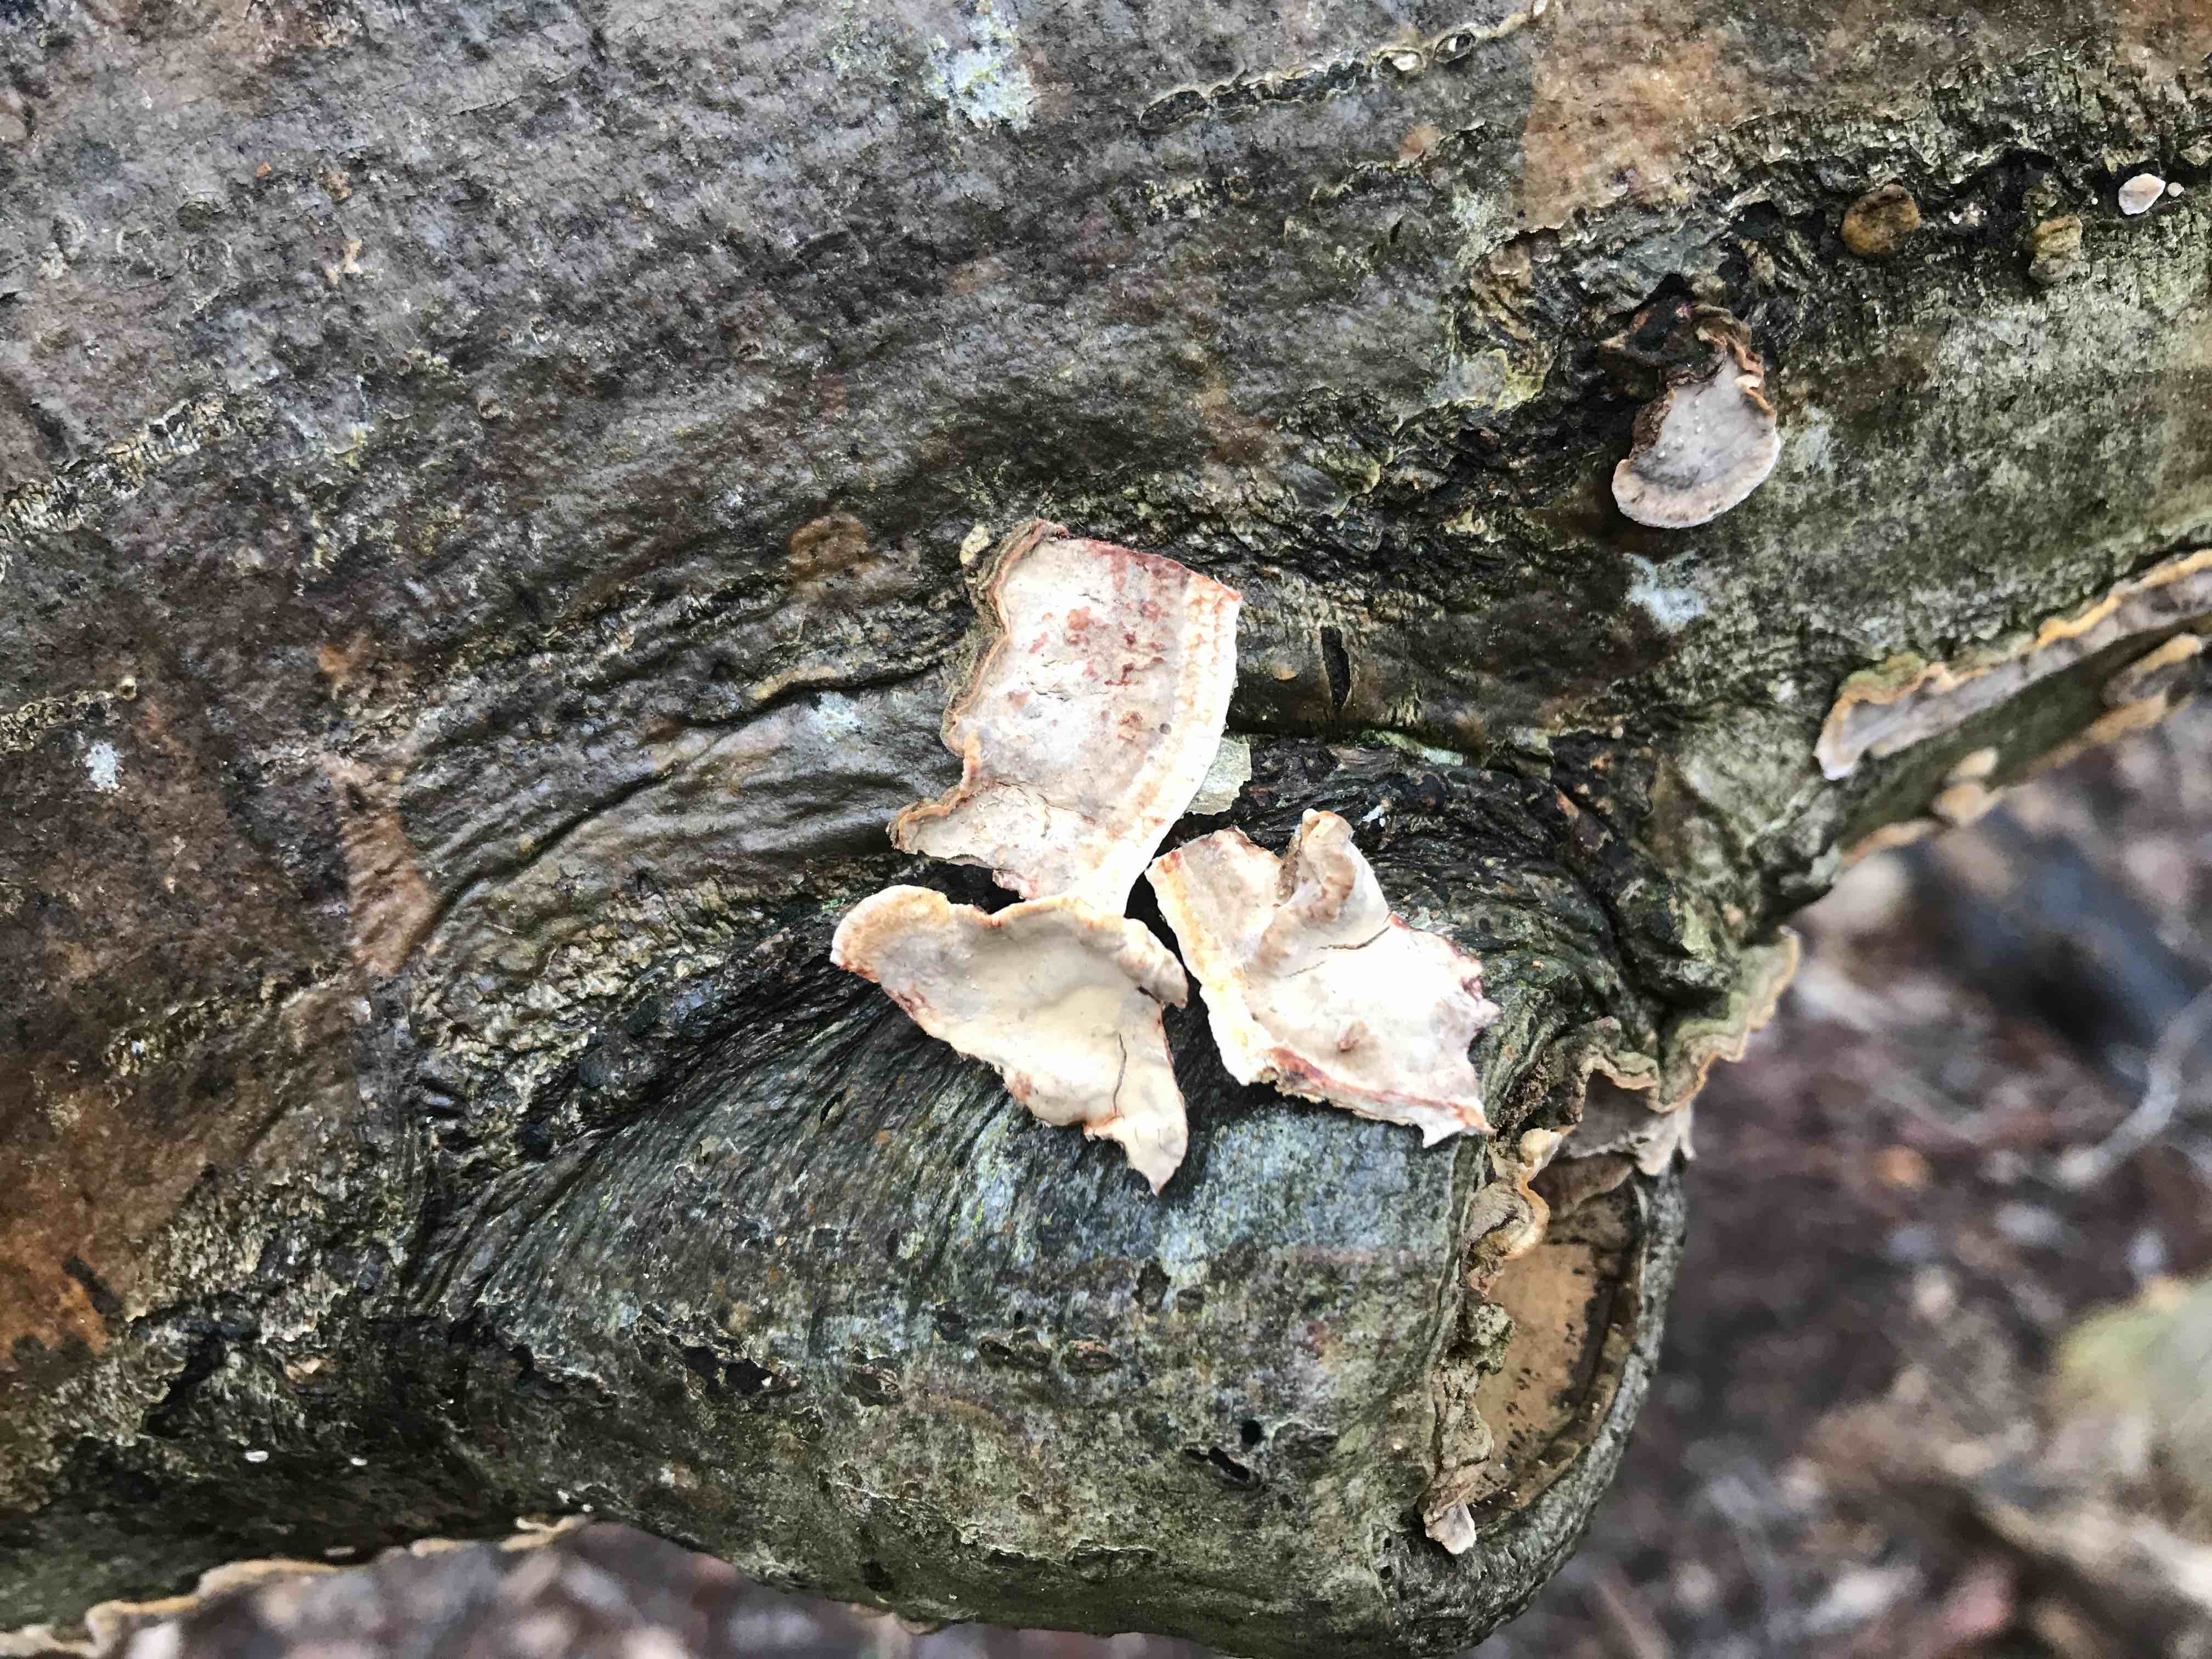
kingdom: Fungi
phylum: Basidiomycota
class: Agaricomycetes
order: Russulales
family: Stereaceae
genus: Stereum
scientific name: Stereum rugosum
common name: rynket lædersvamp
